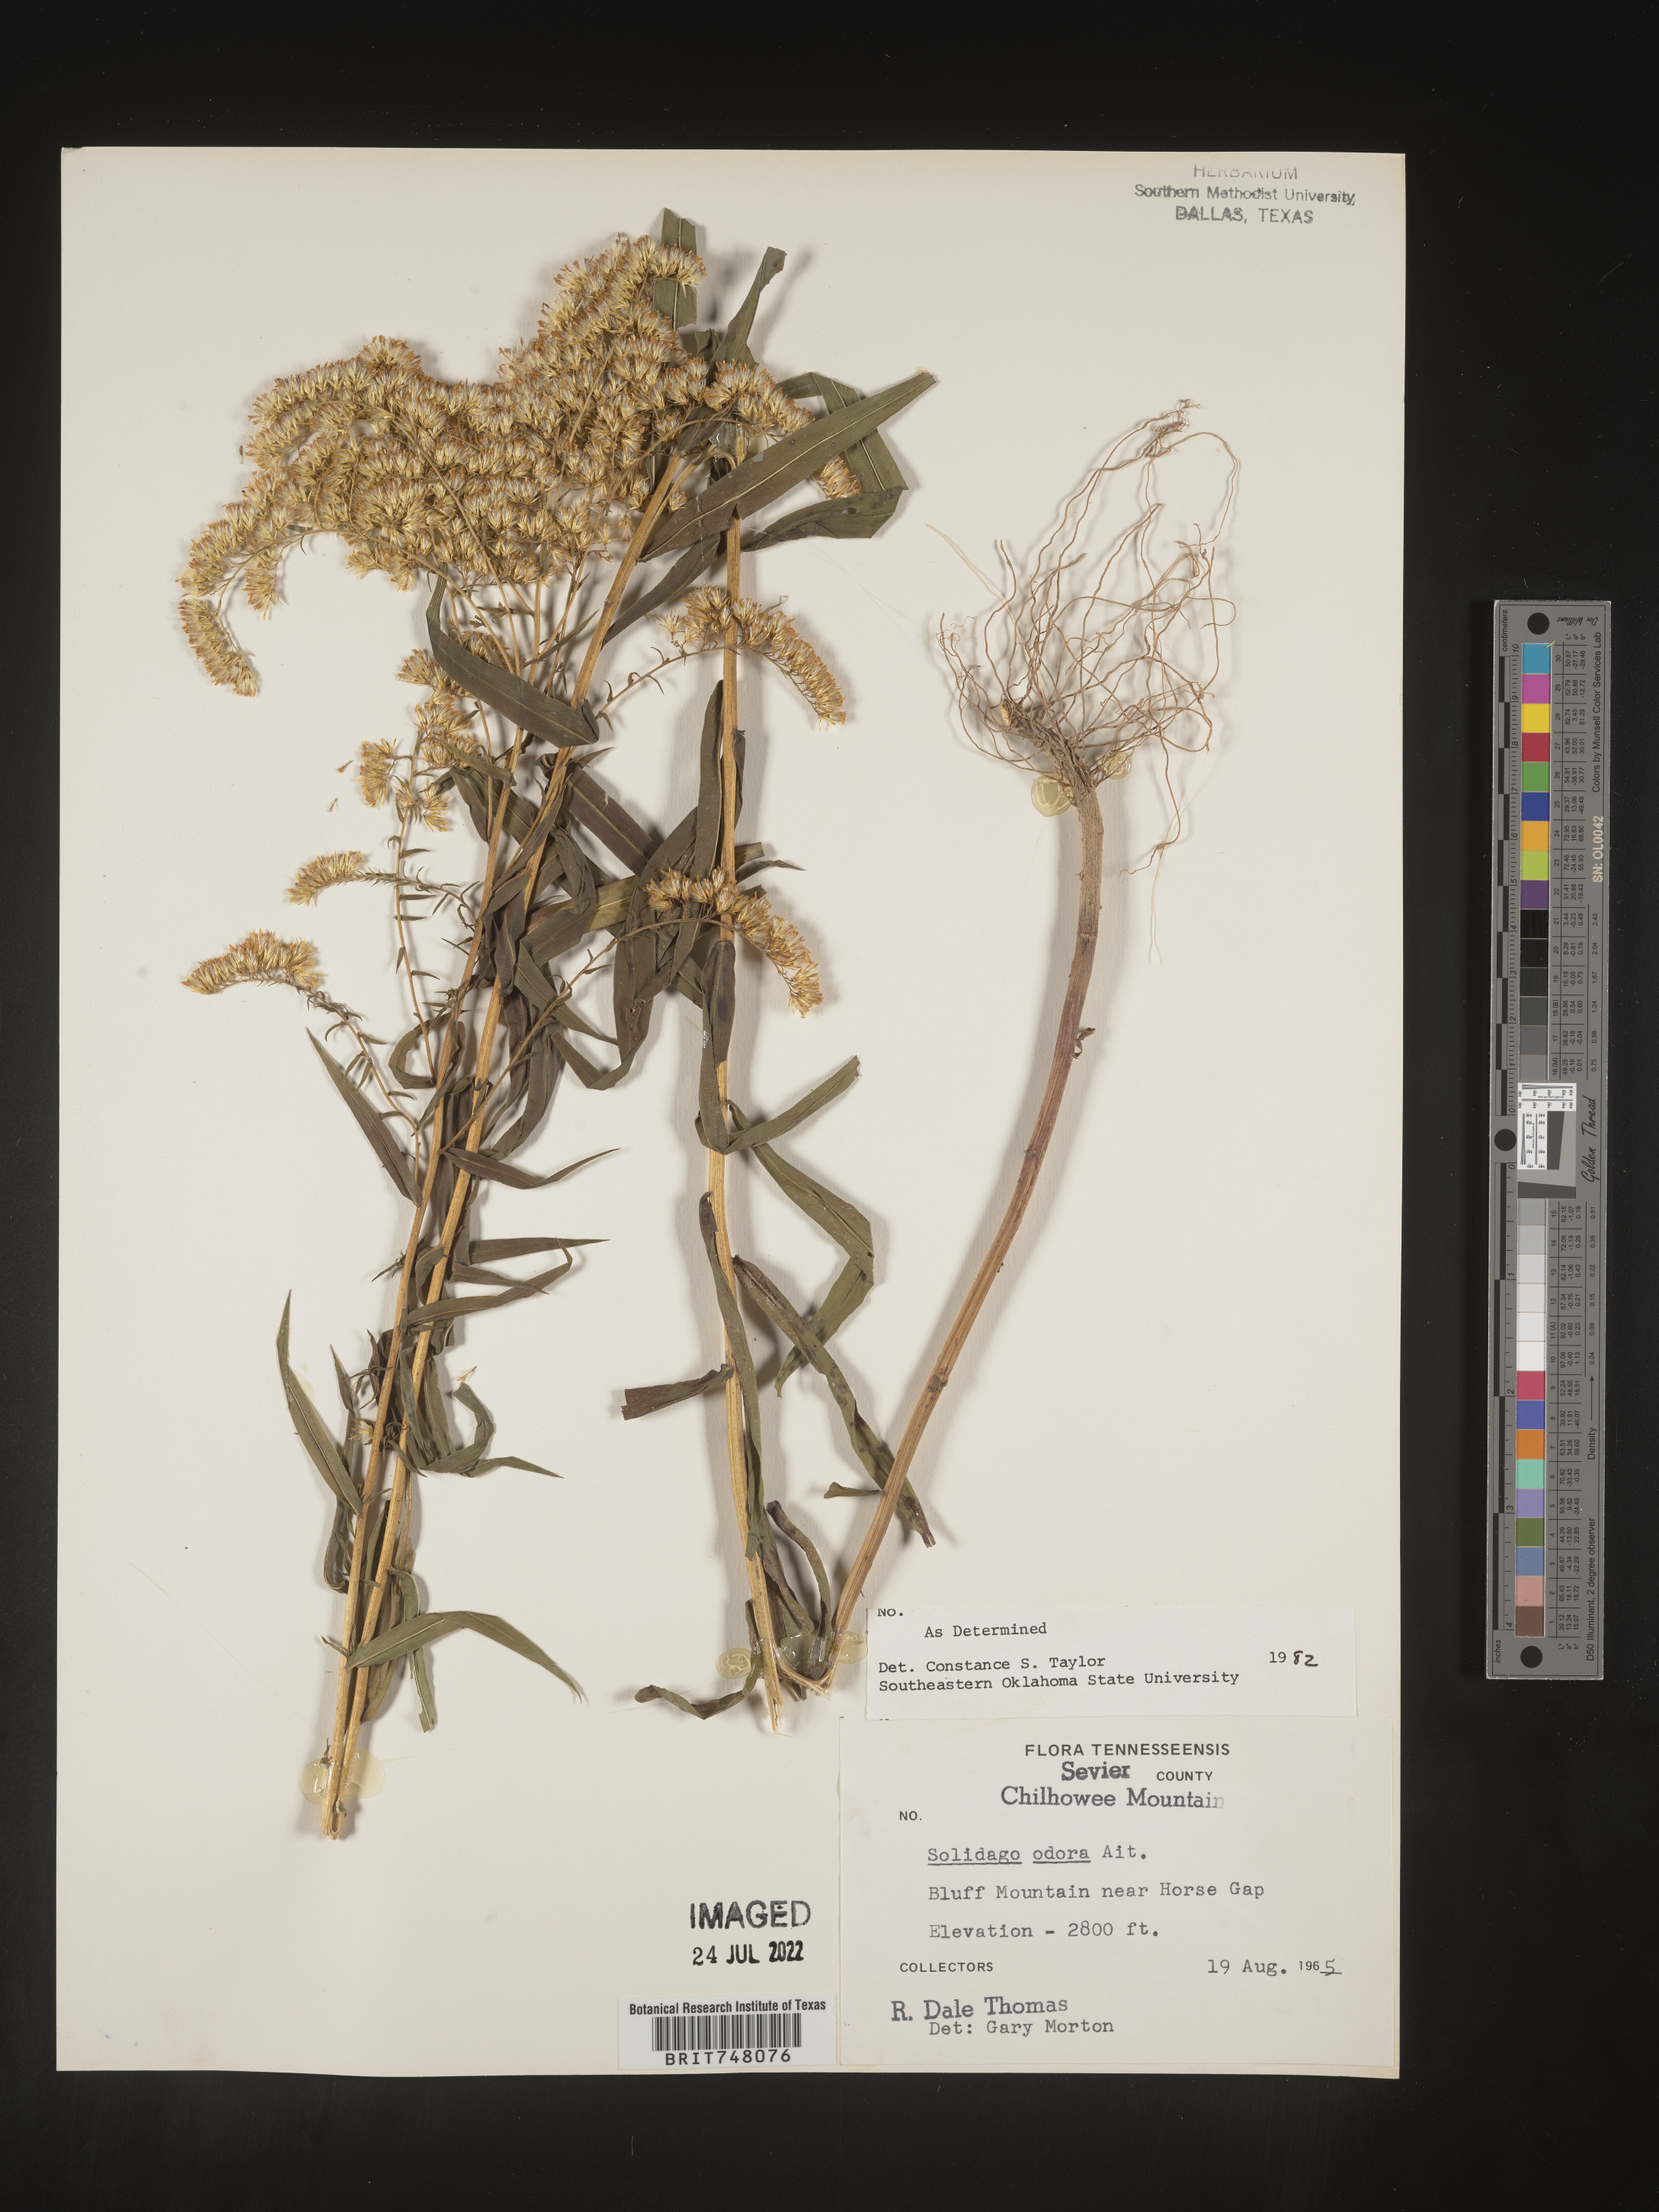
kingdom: Plantae
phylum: Tracheophyta
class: Magnoliopsida
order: Asterales
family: Asteraceae
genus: Solidago
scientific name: Solidago odora
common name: Anise-scented goldenrod
